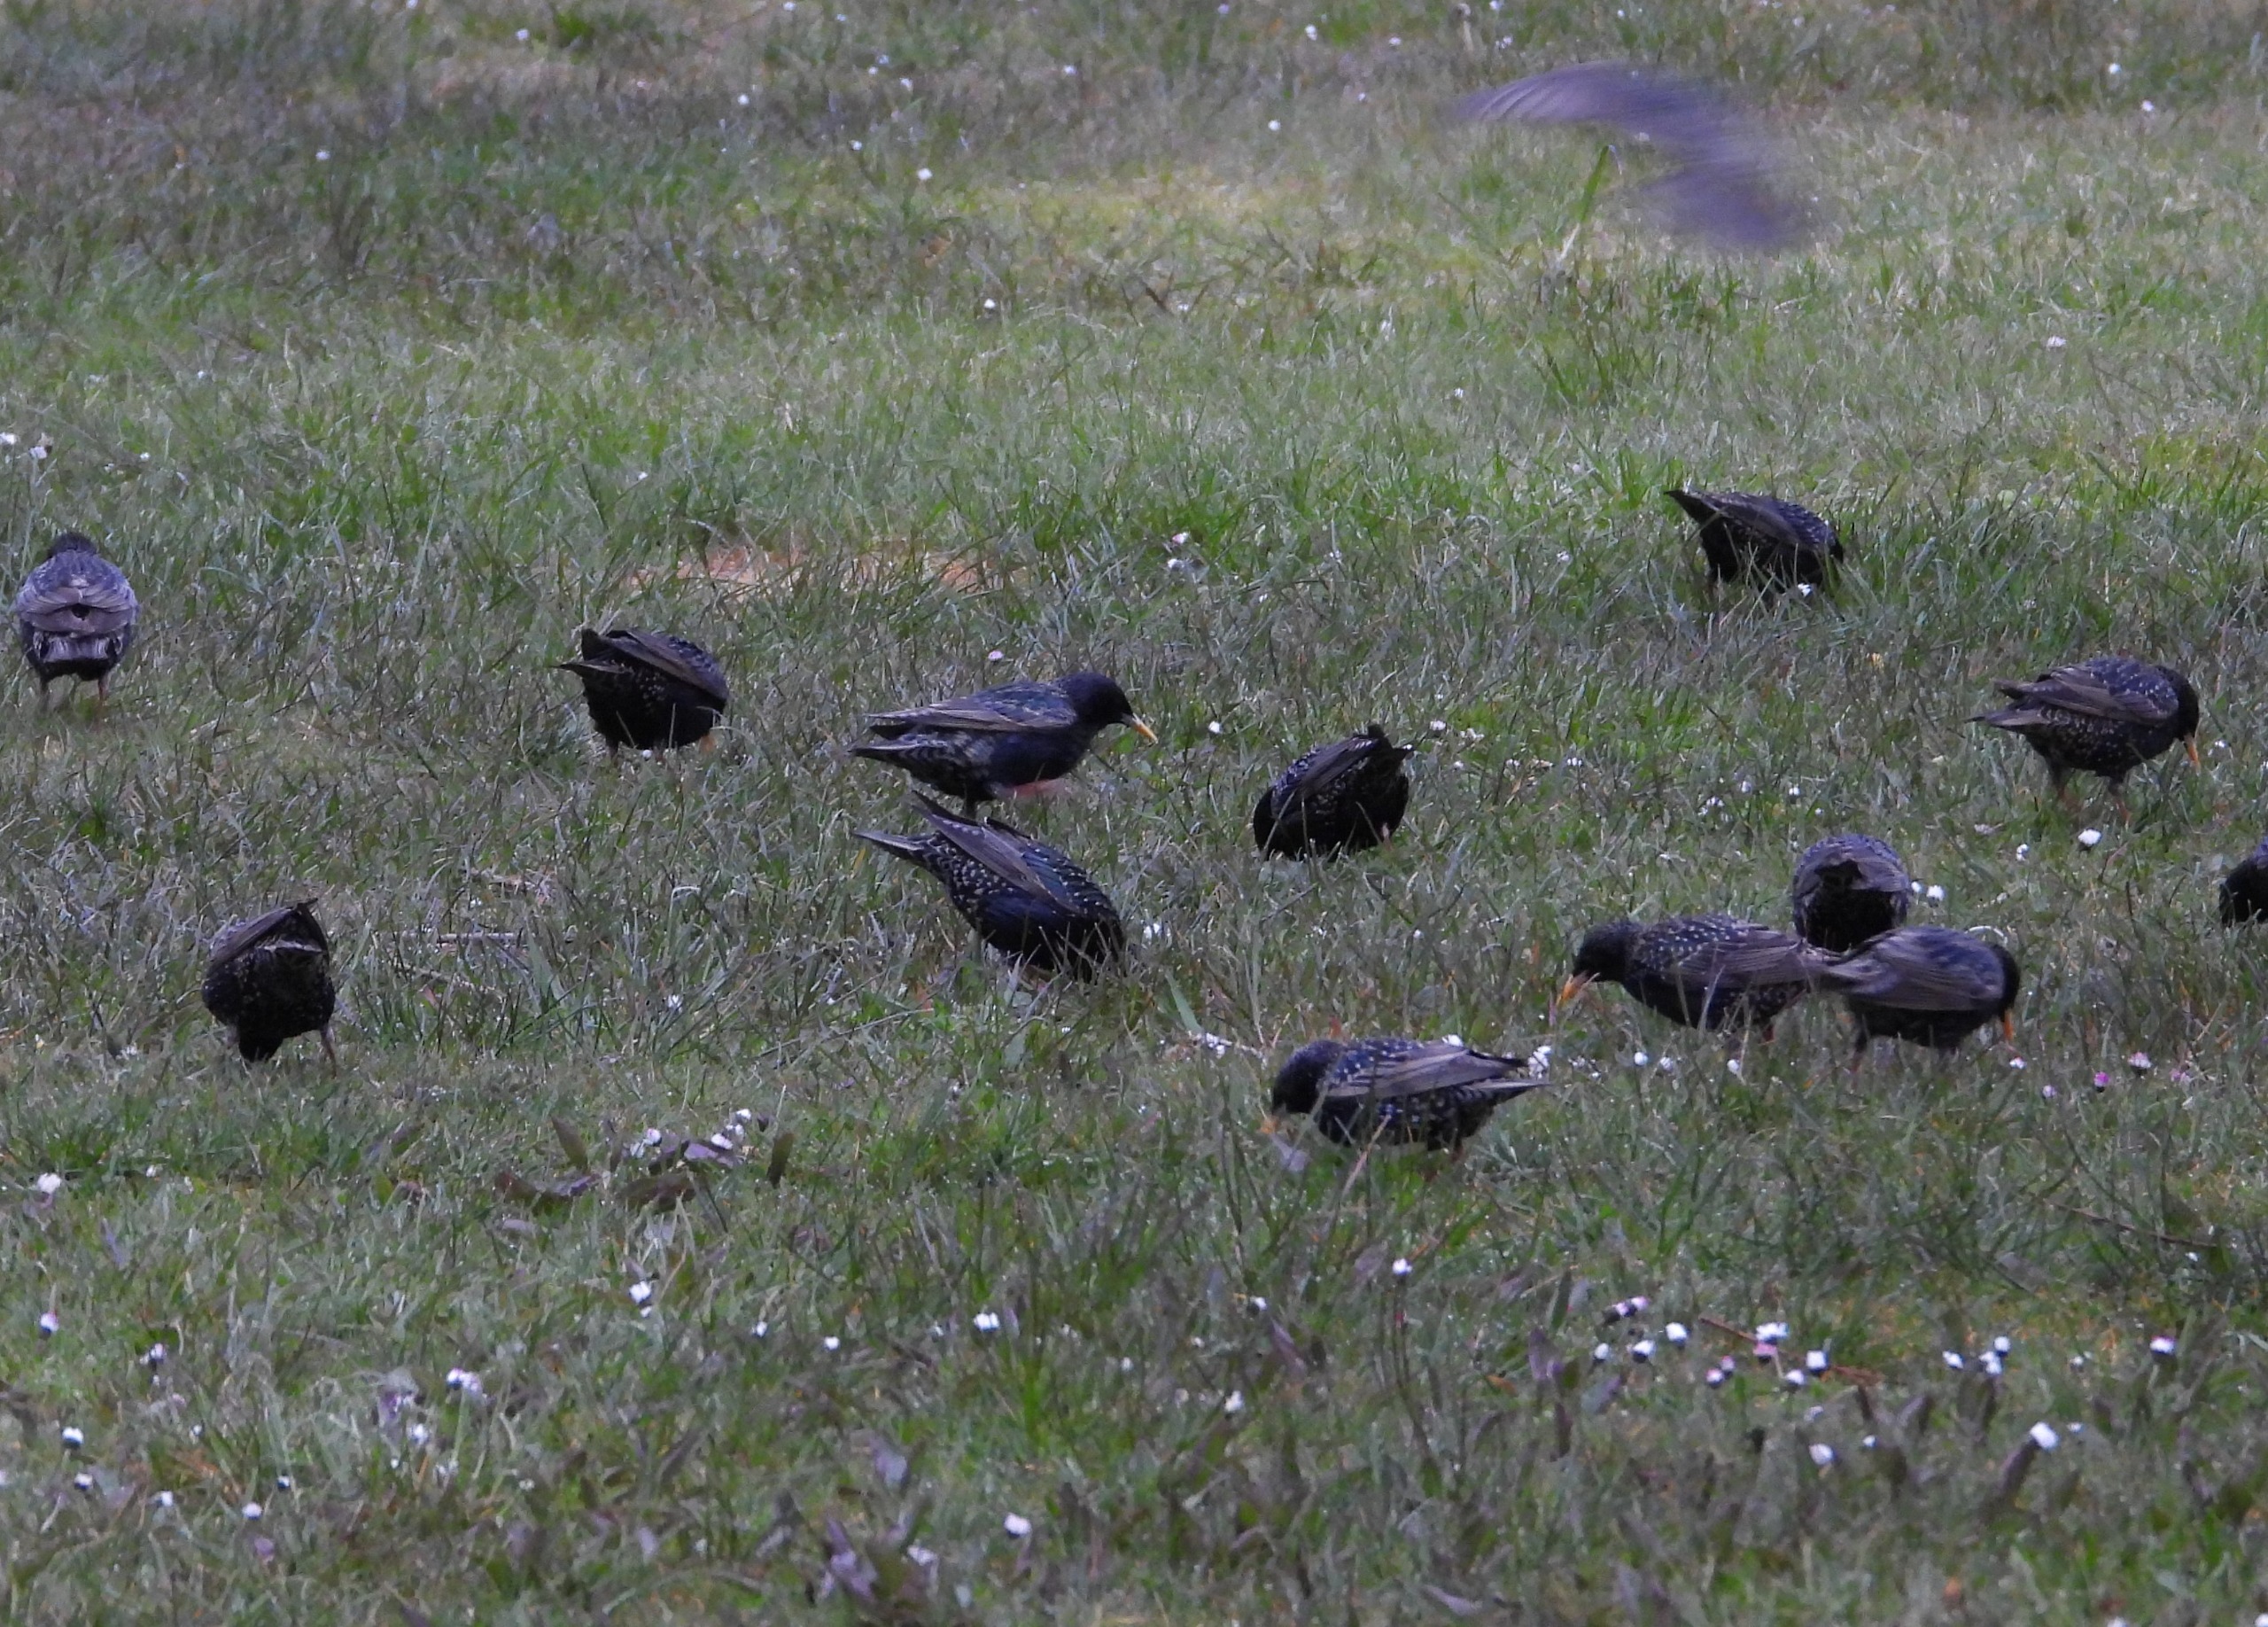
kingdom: Animalia
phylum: Chordata
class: Aves
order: Passeriformes
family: Sturnidae
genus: Sturnus
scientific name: Sturnus vulgaris
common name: Stær
